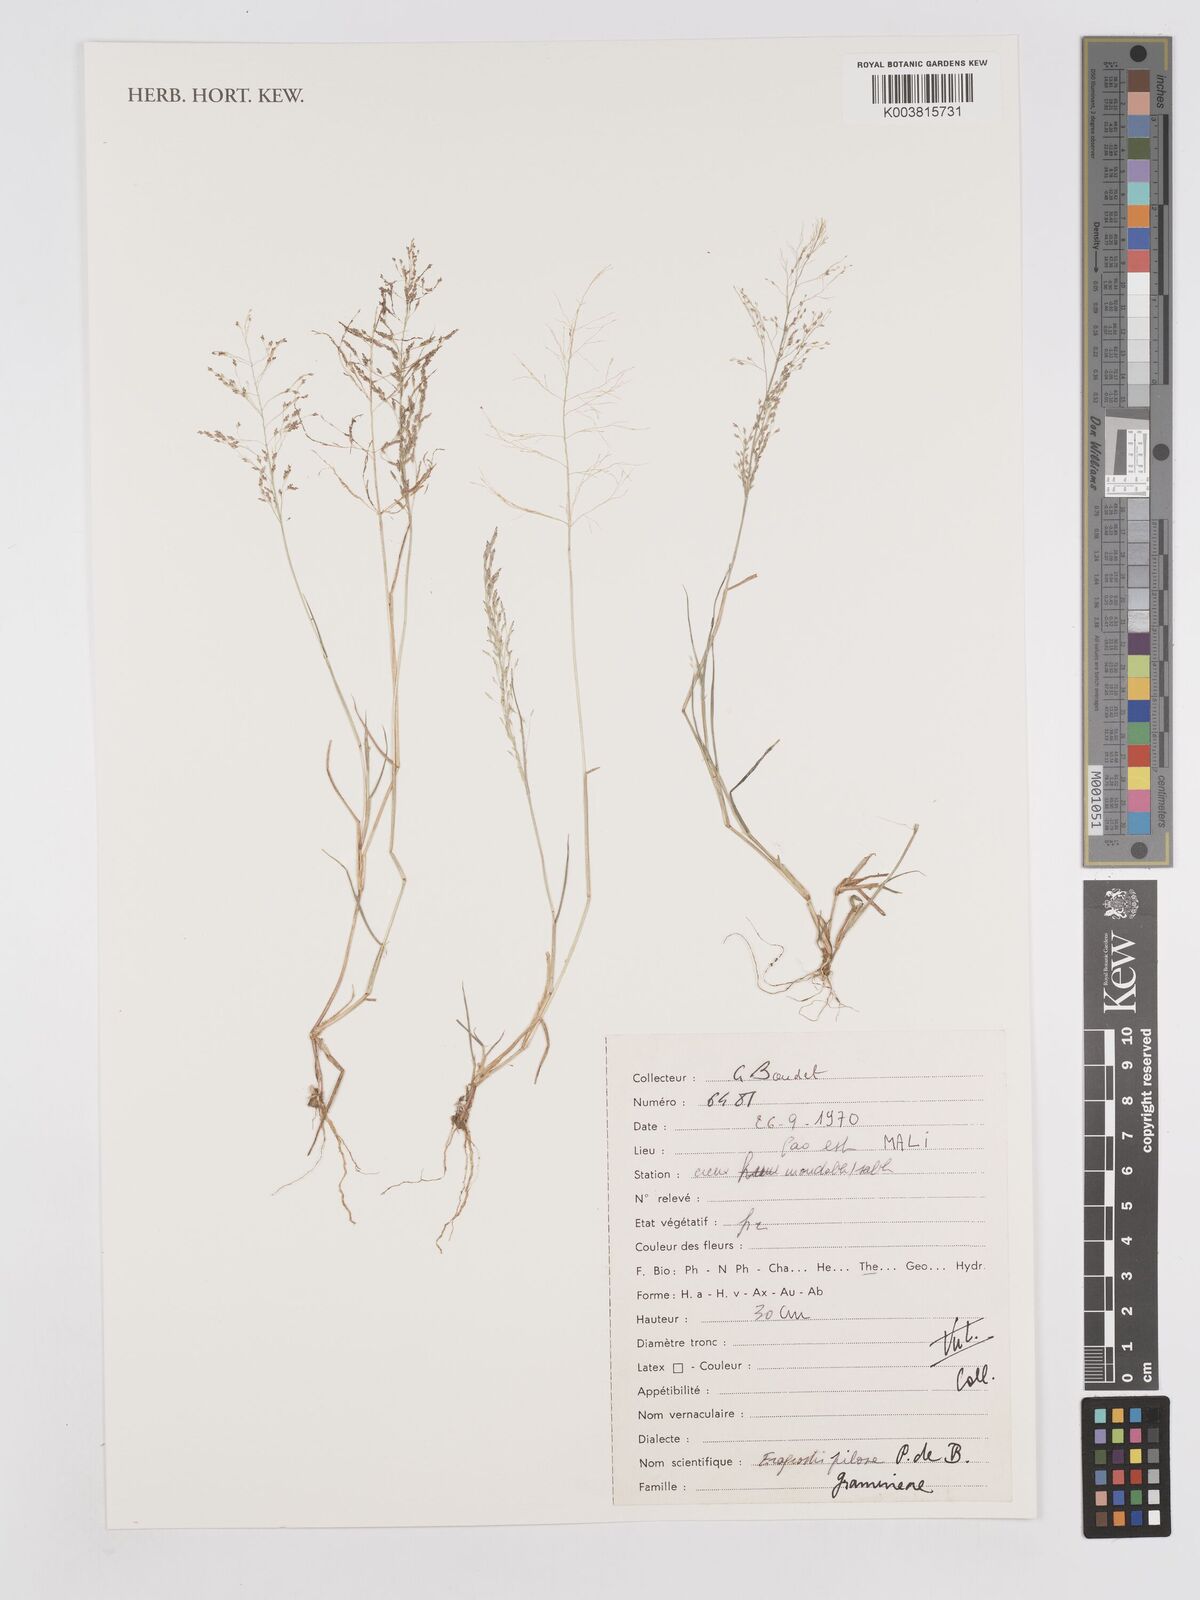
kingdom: Plantae
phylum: Tracheophyta
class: Liliopsida
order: Poales
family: Poaceae
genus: Eragrostis
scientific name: Eragrostis pilosa
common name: Indian lovegrass
